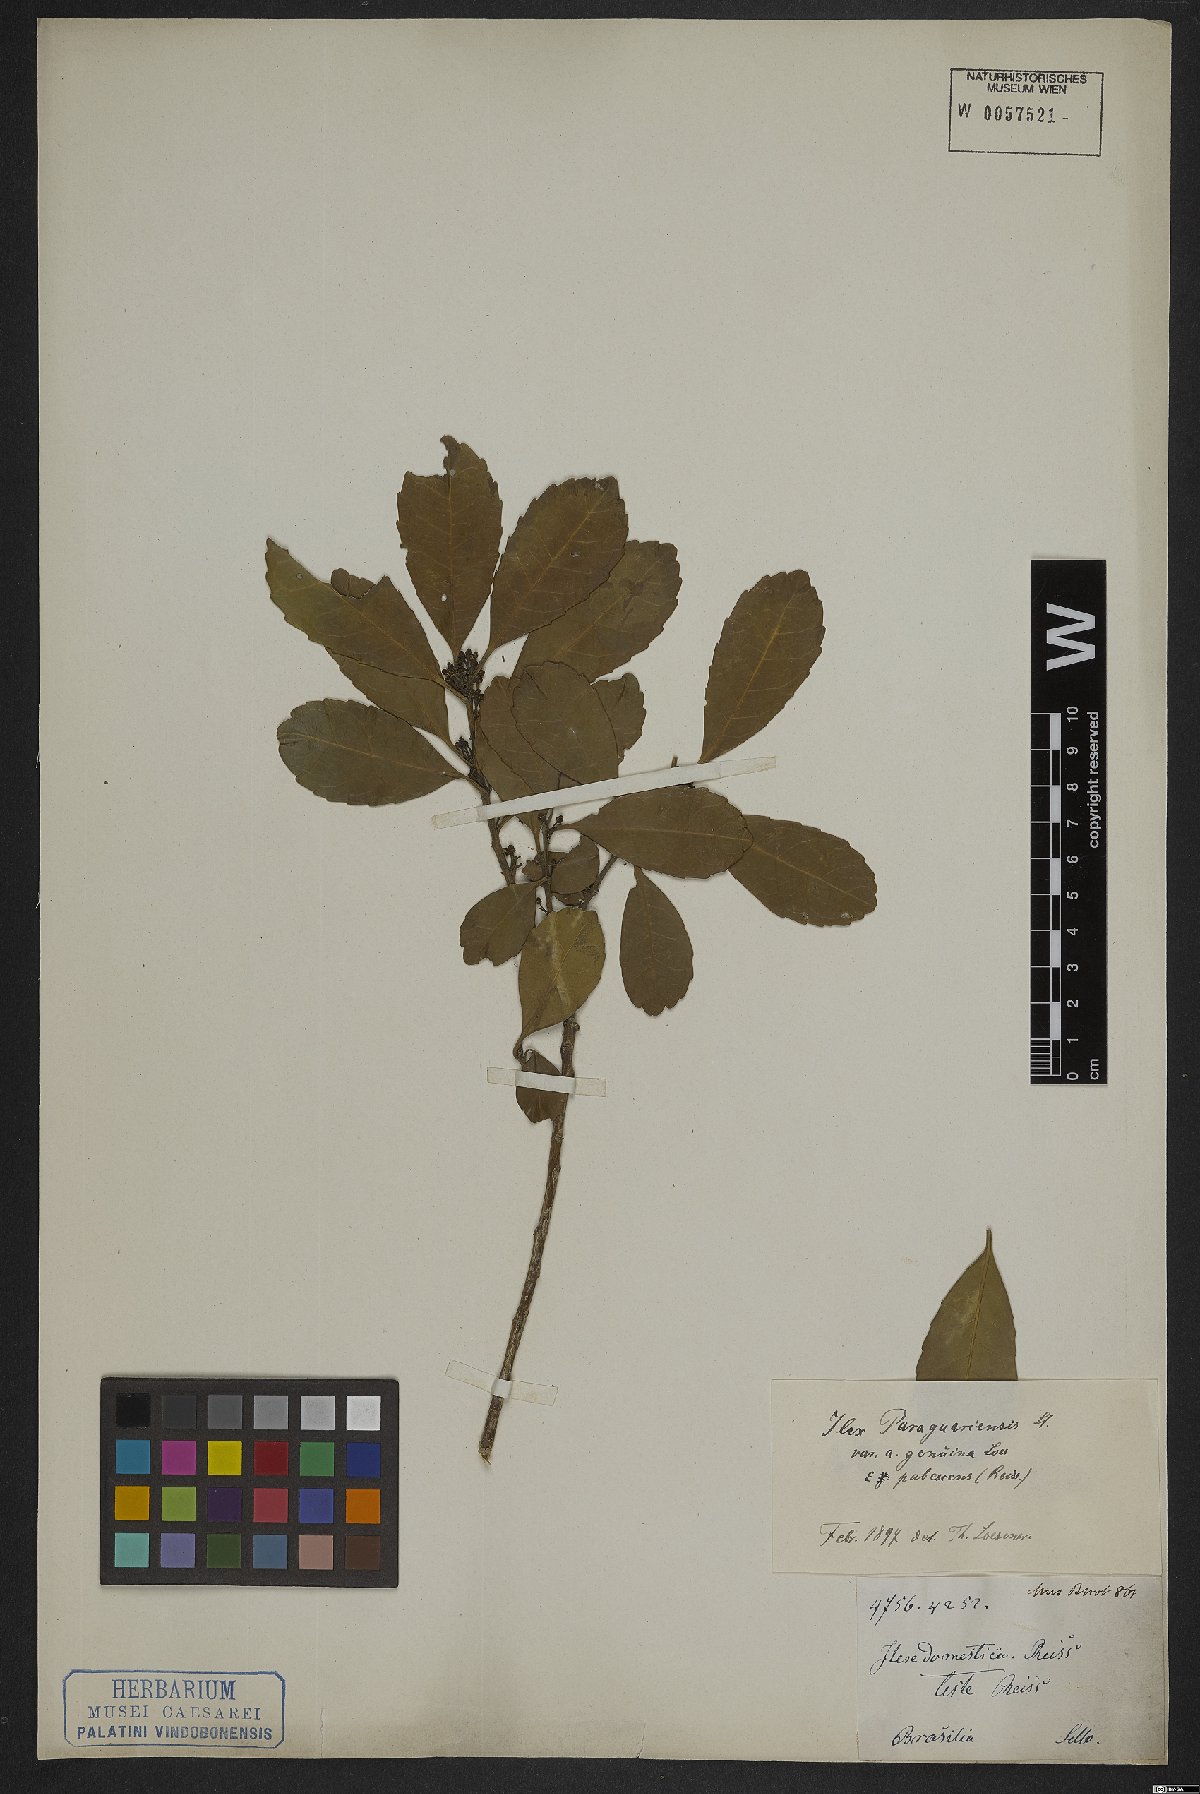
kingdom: Plantae
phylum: Tracheophyta
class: Magnoliopsida
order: Aquifoliales
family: Aquifoliaceae
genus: Ilex
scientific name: Ilex paraguariensis
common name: Paraguay tea
